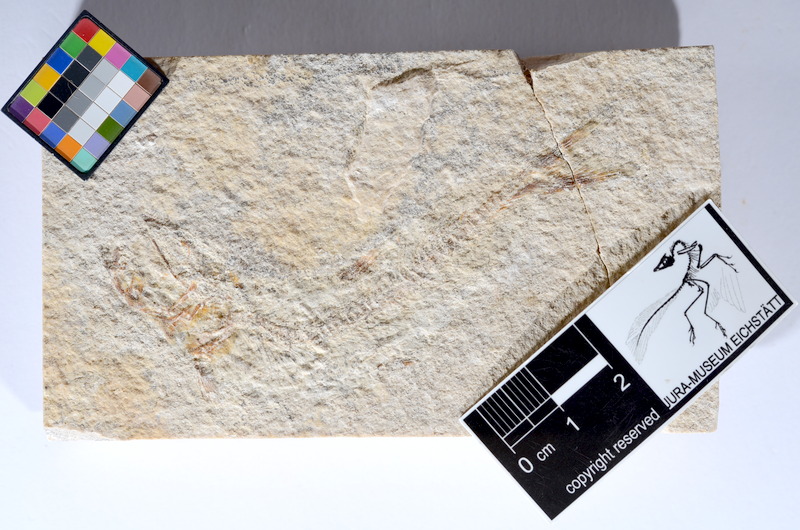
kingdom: Animalia
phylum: Chordata
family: Ascalaboidae
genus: Tharsis
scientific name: Tharsis dubius
